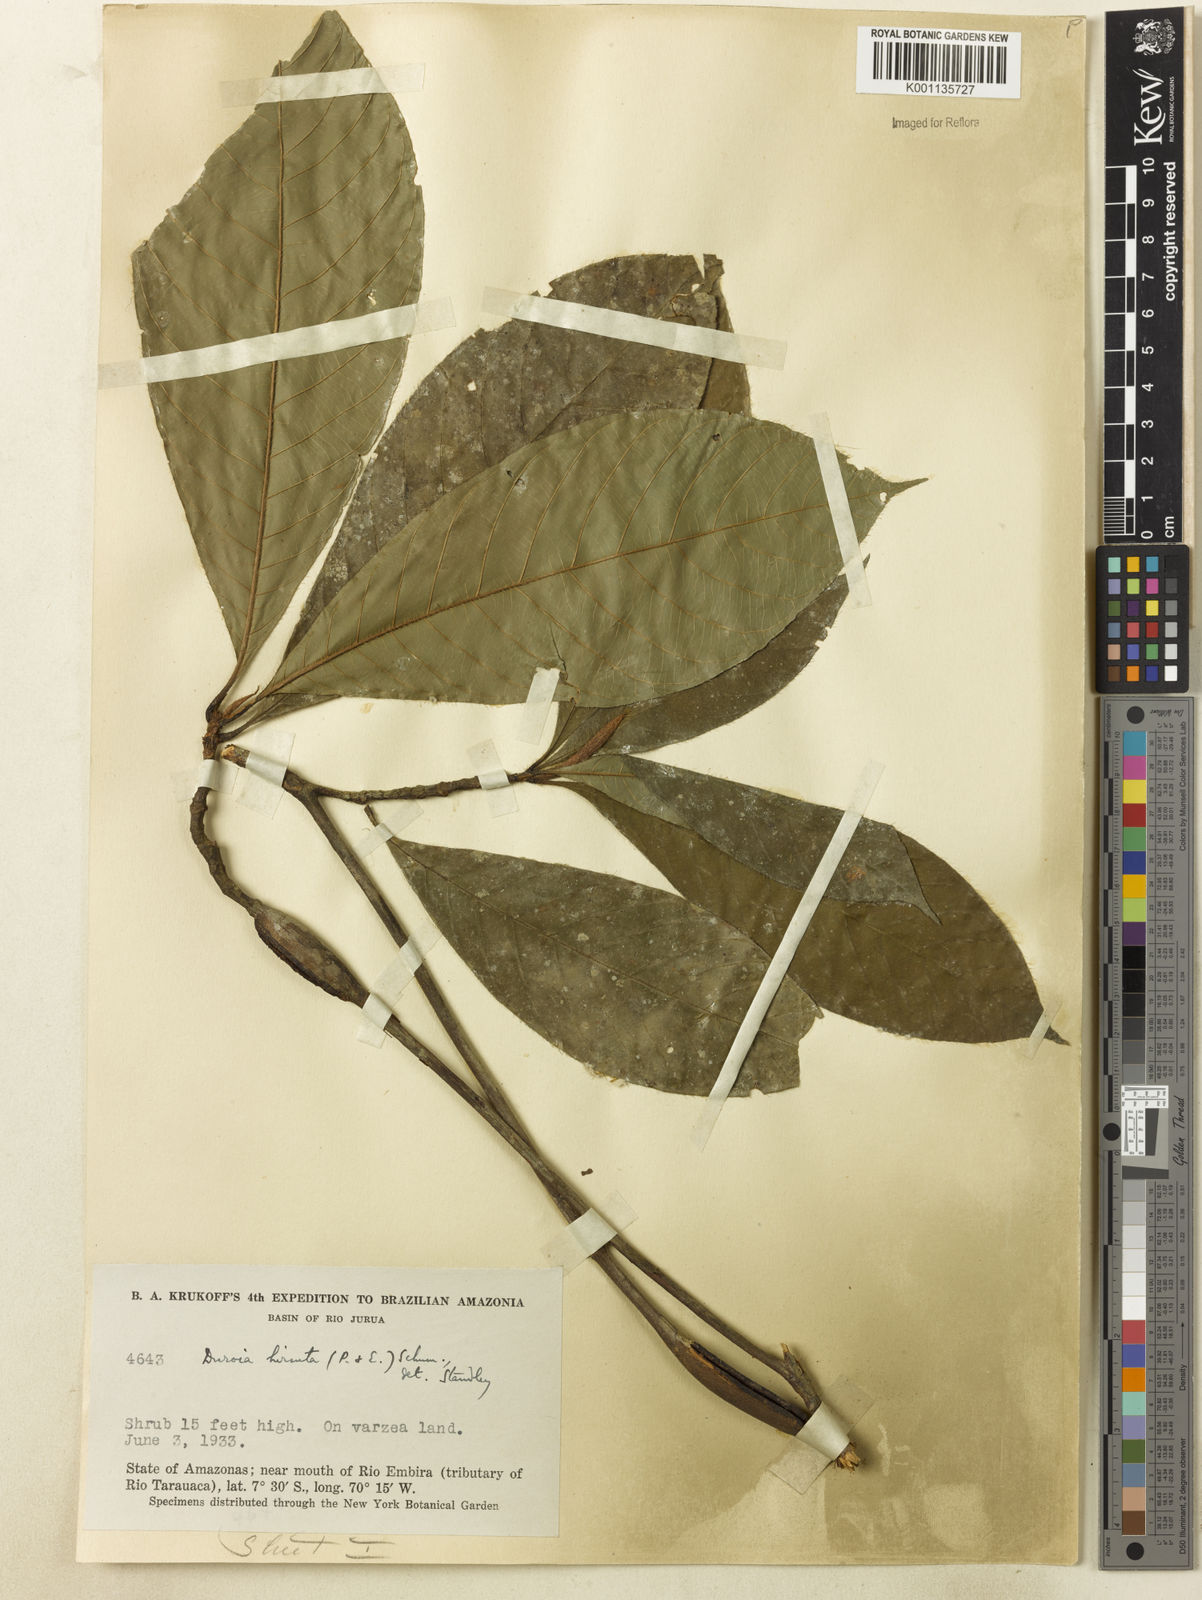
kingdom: Plantae
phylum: Tracheophyta
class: Magnoliopsida
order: Gentianales
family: Rubiaceae
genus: Duroia
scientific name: Duroia hirsuta
